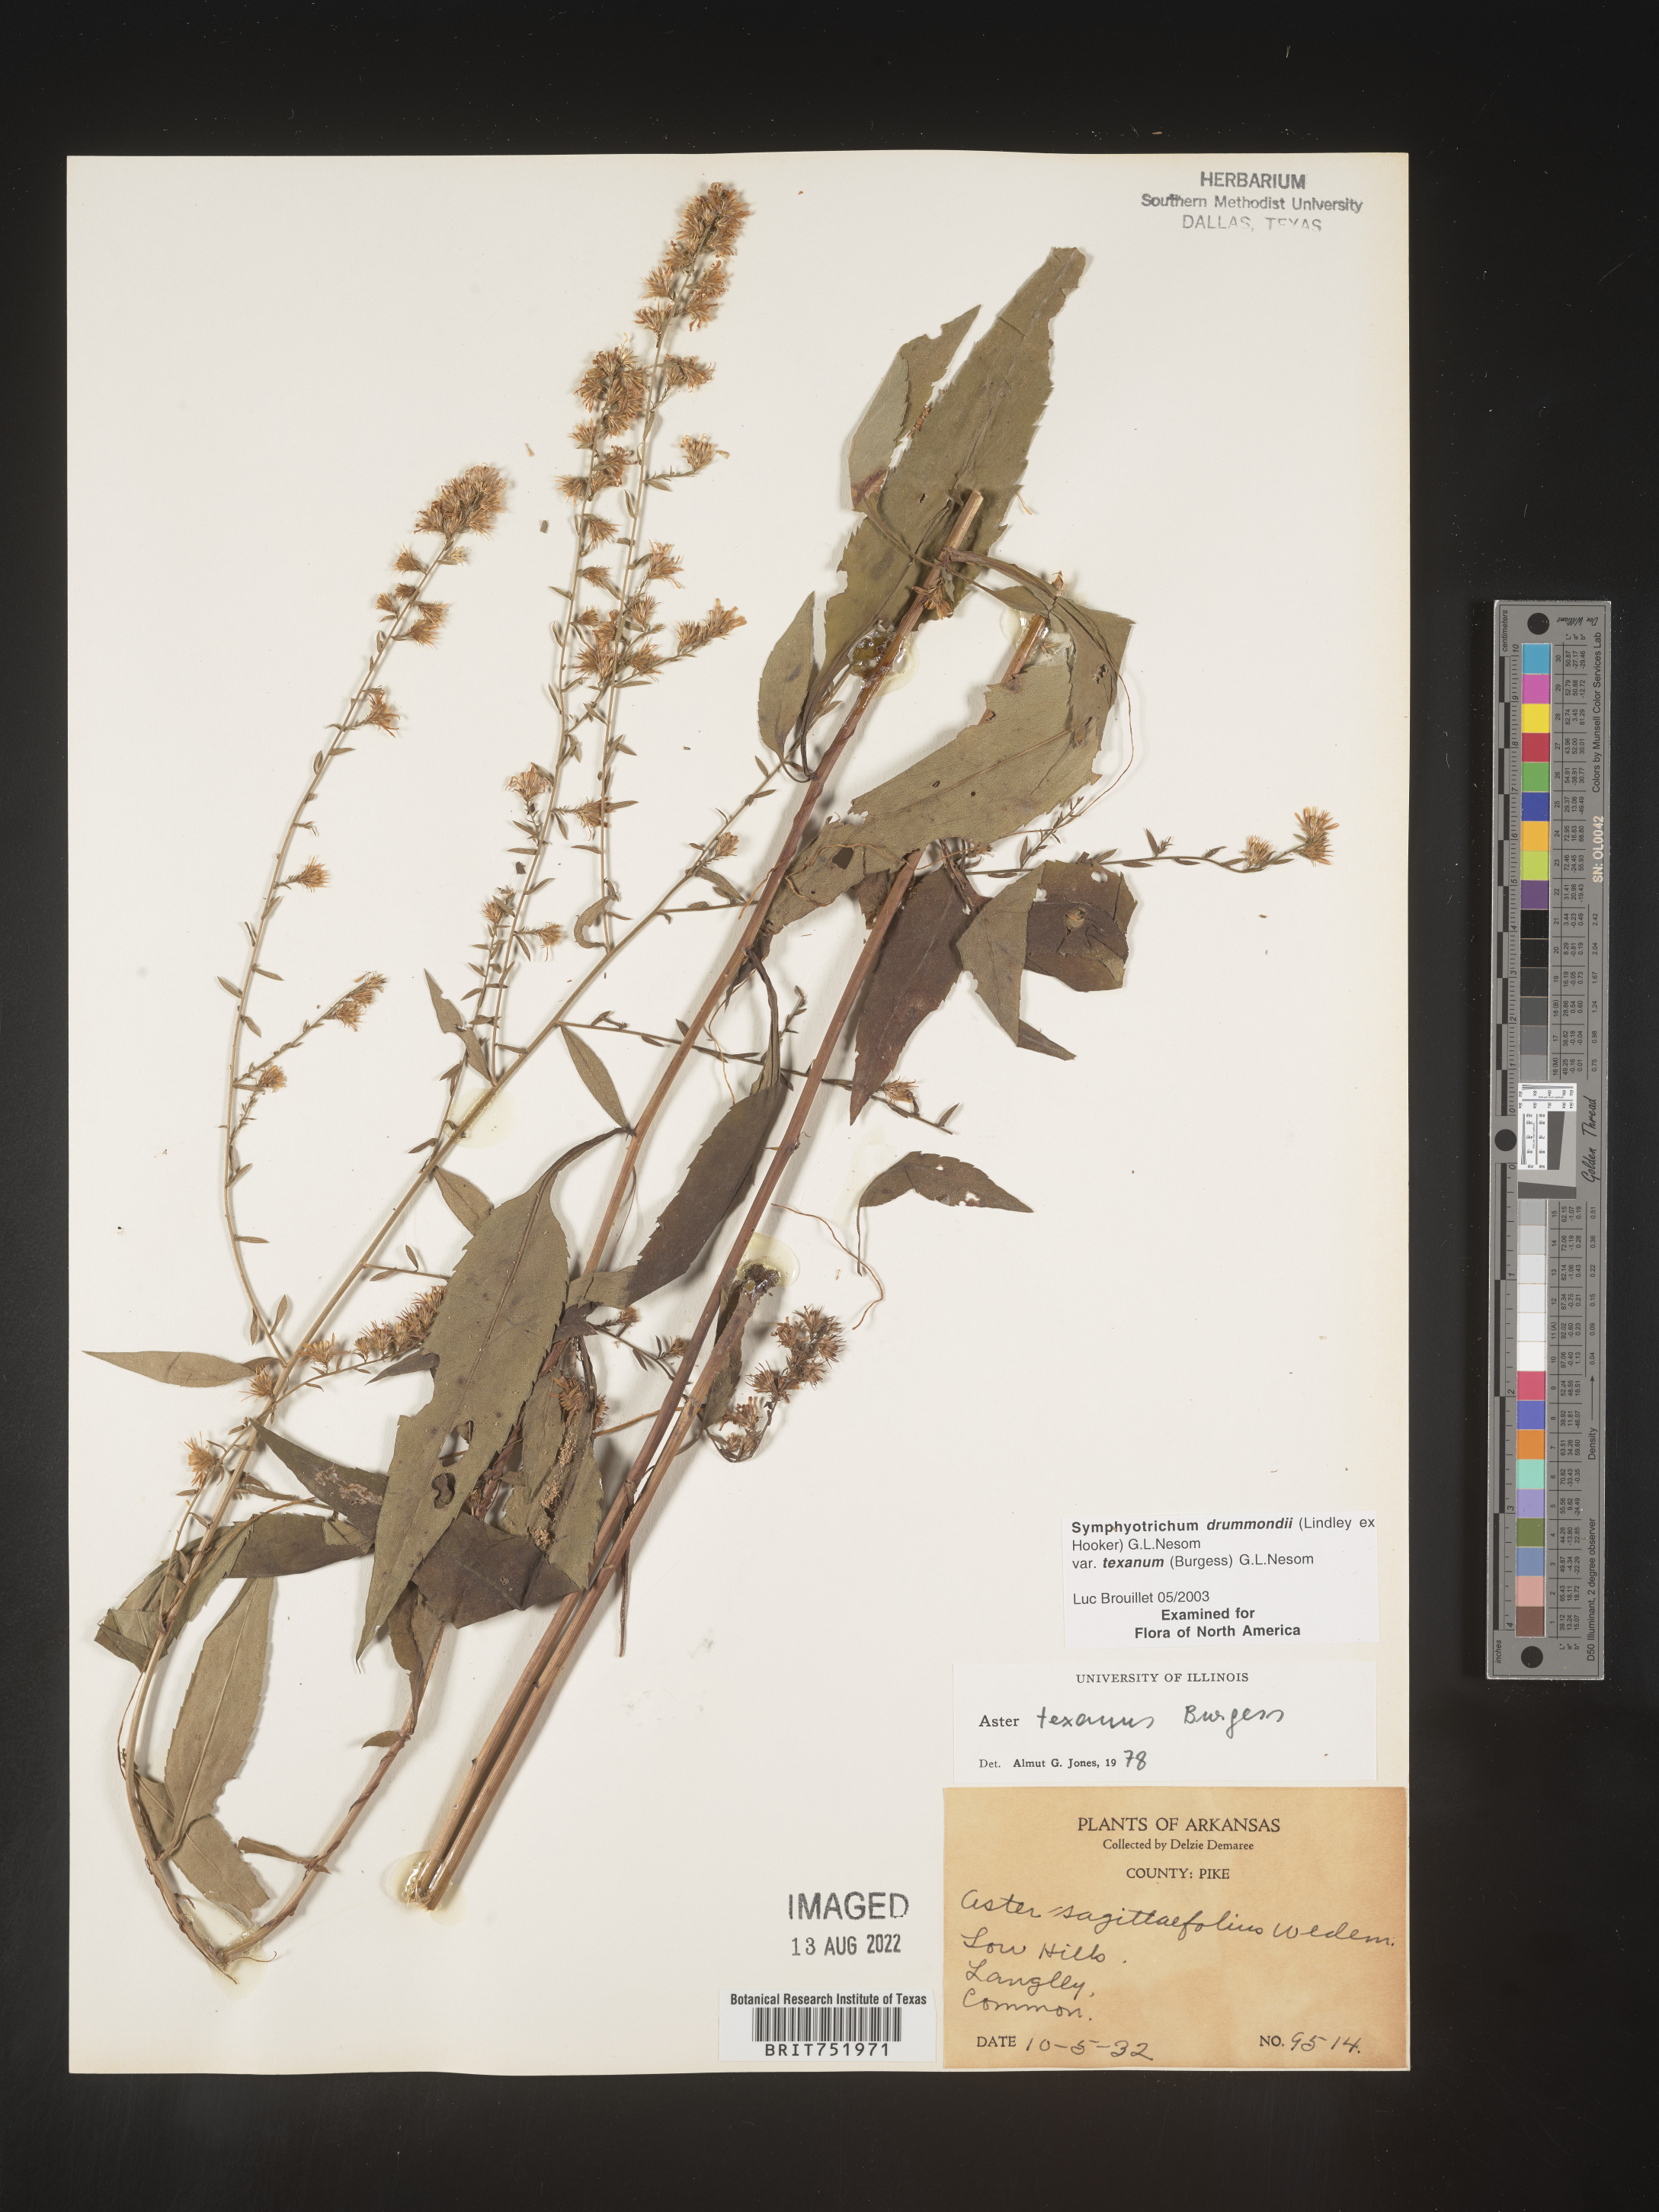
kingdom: Plantae
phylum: Tracheophyta
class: Magnoliopsida
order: Asterales
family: Asteraceae
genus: Symphyotrichum
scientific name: Symphyotrichum drummondii
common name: Drummond's aster
